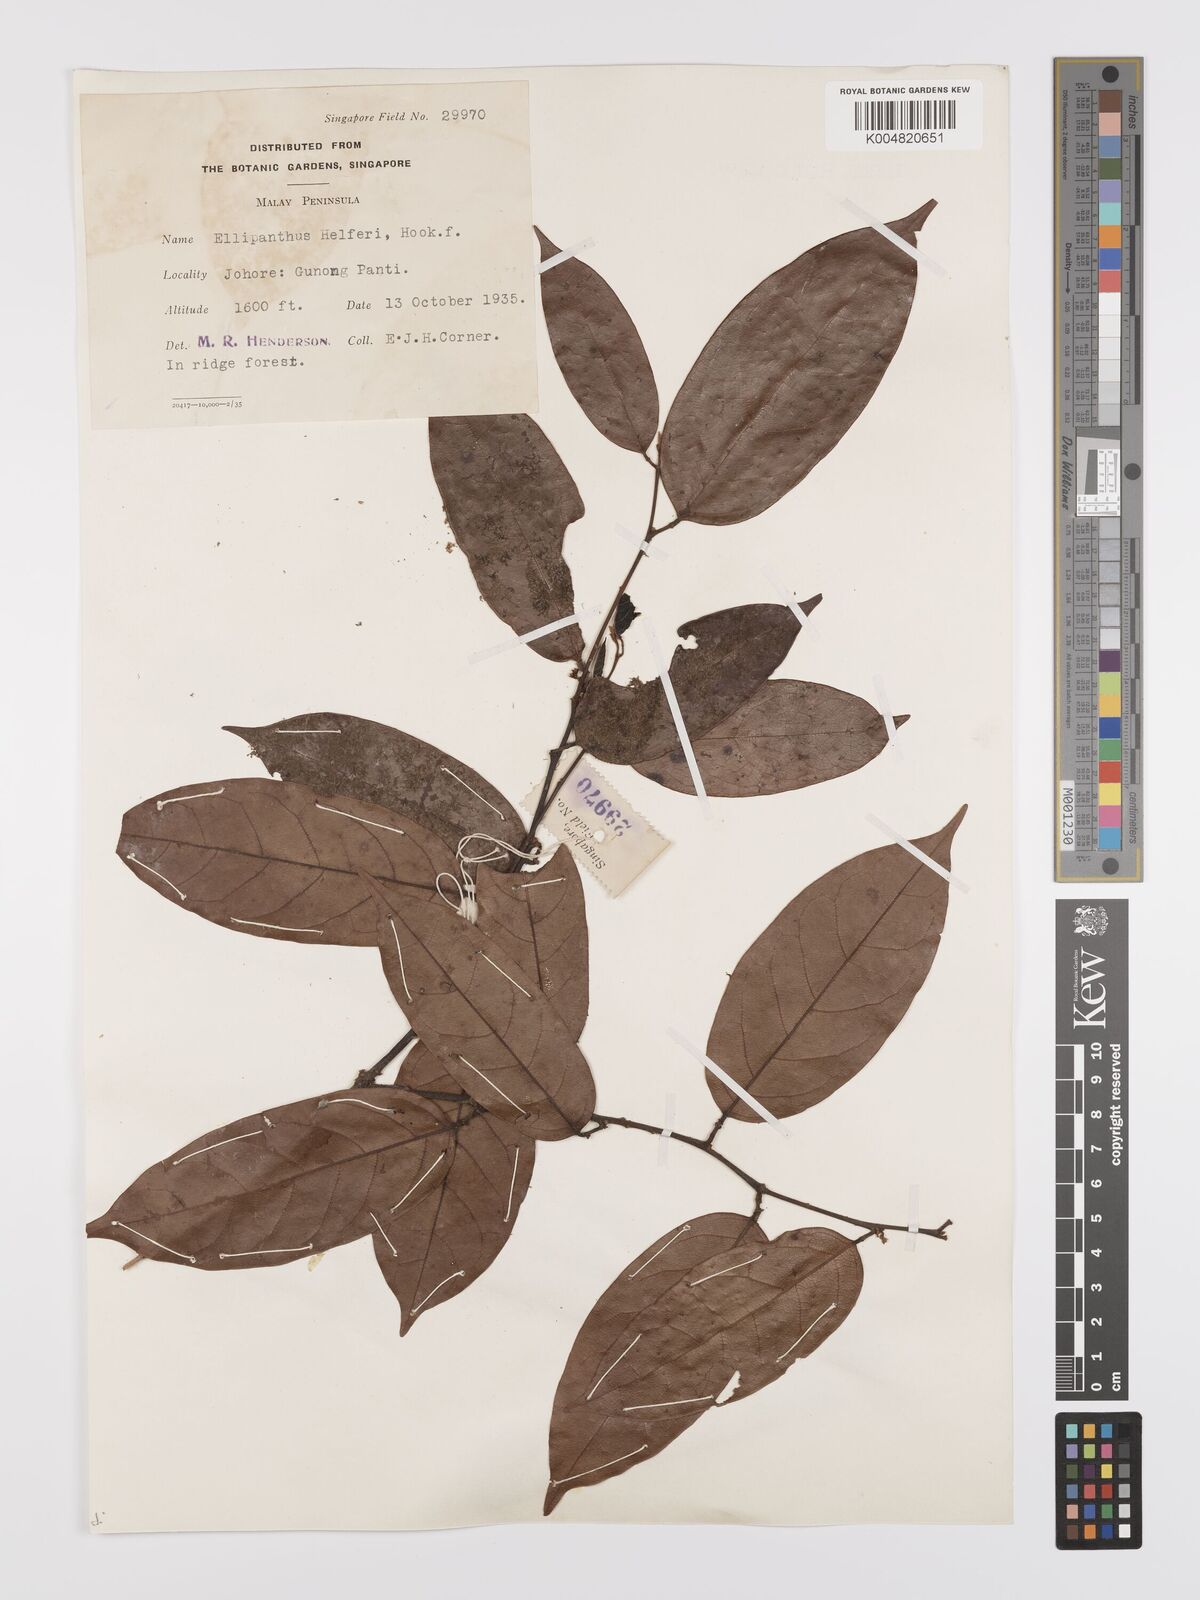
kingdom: Plantae
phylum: Tracheophyta
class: Magnoliopsida
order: Oxalidales
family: Connaraceae
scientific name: Connaraceae
